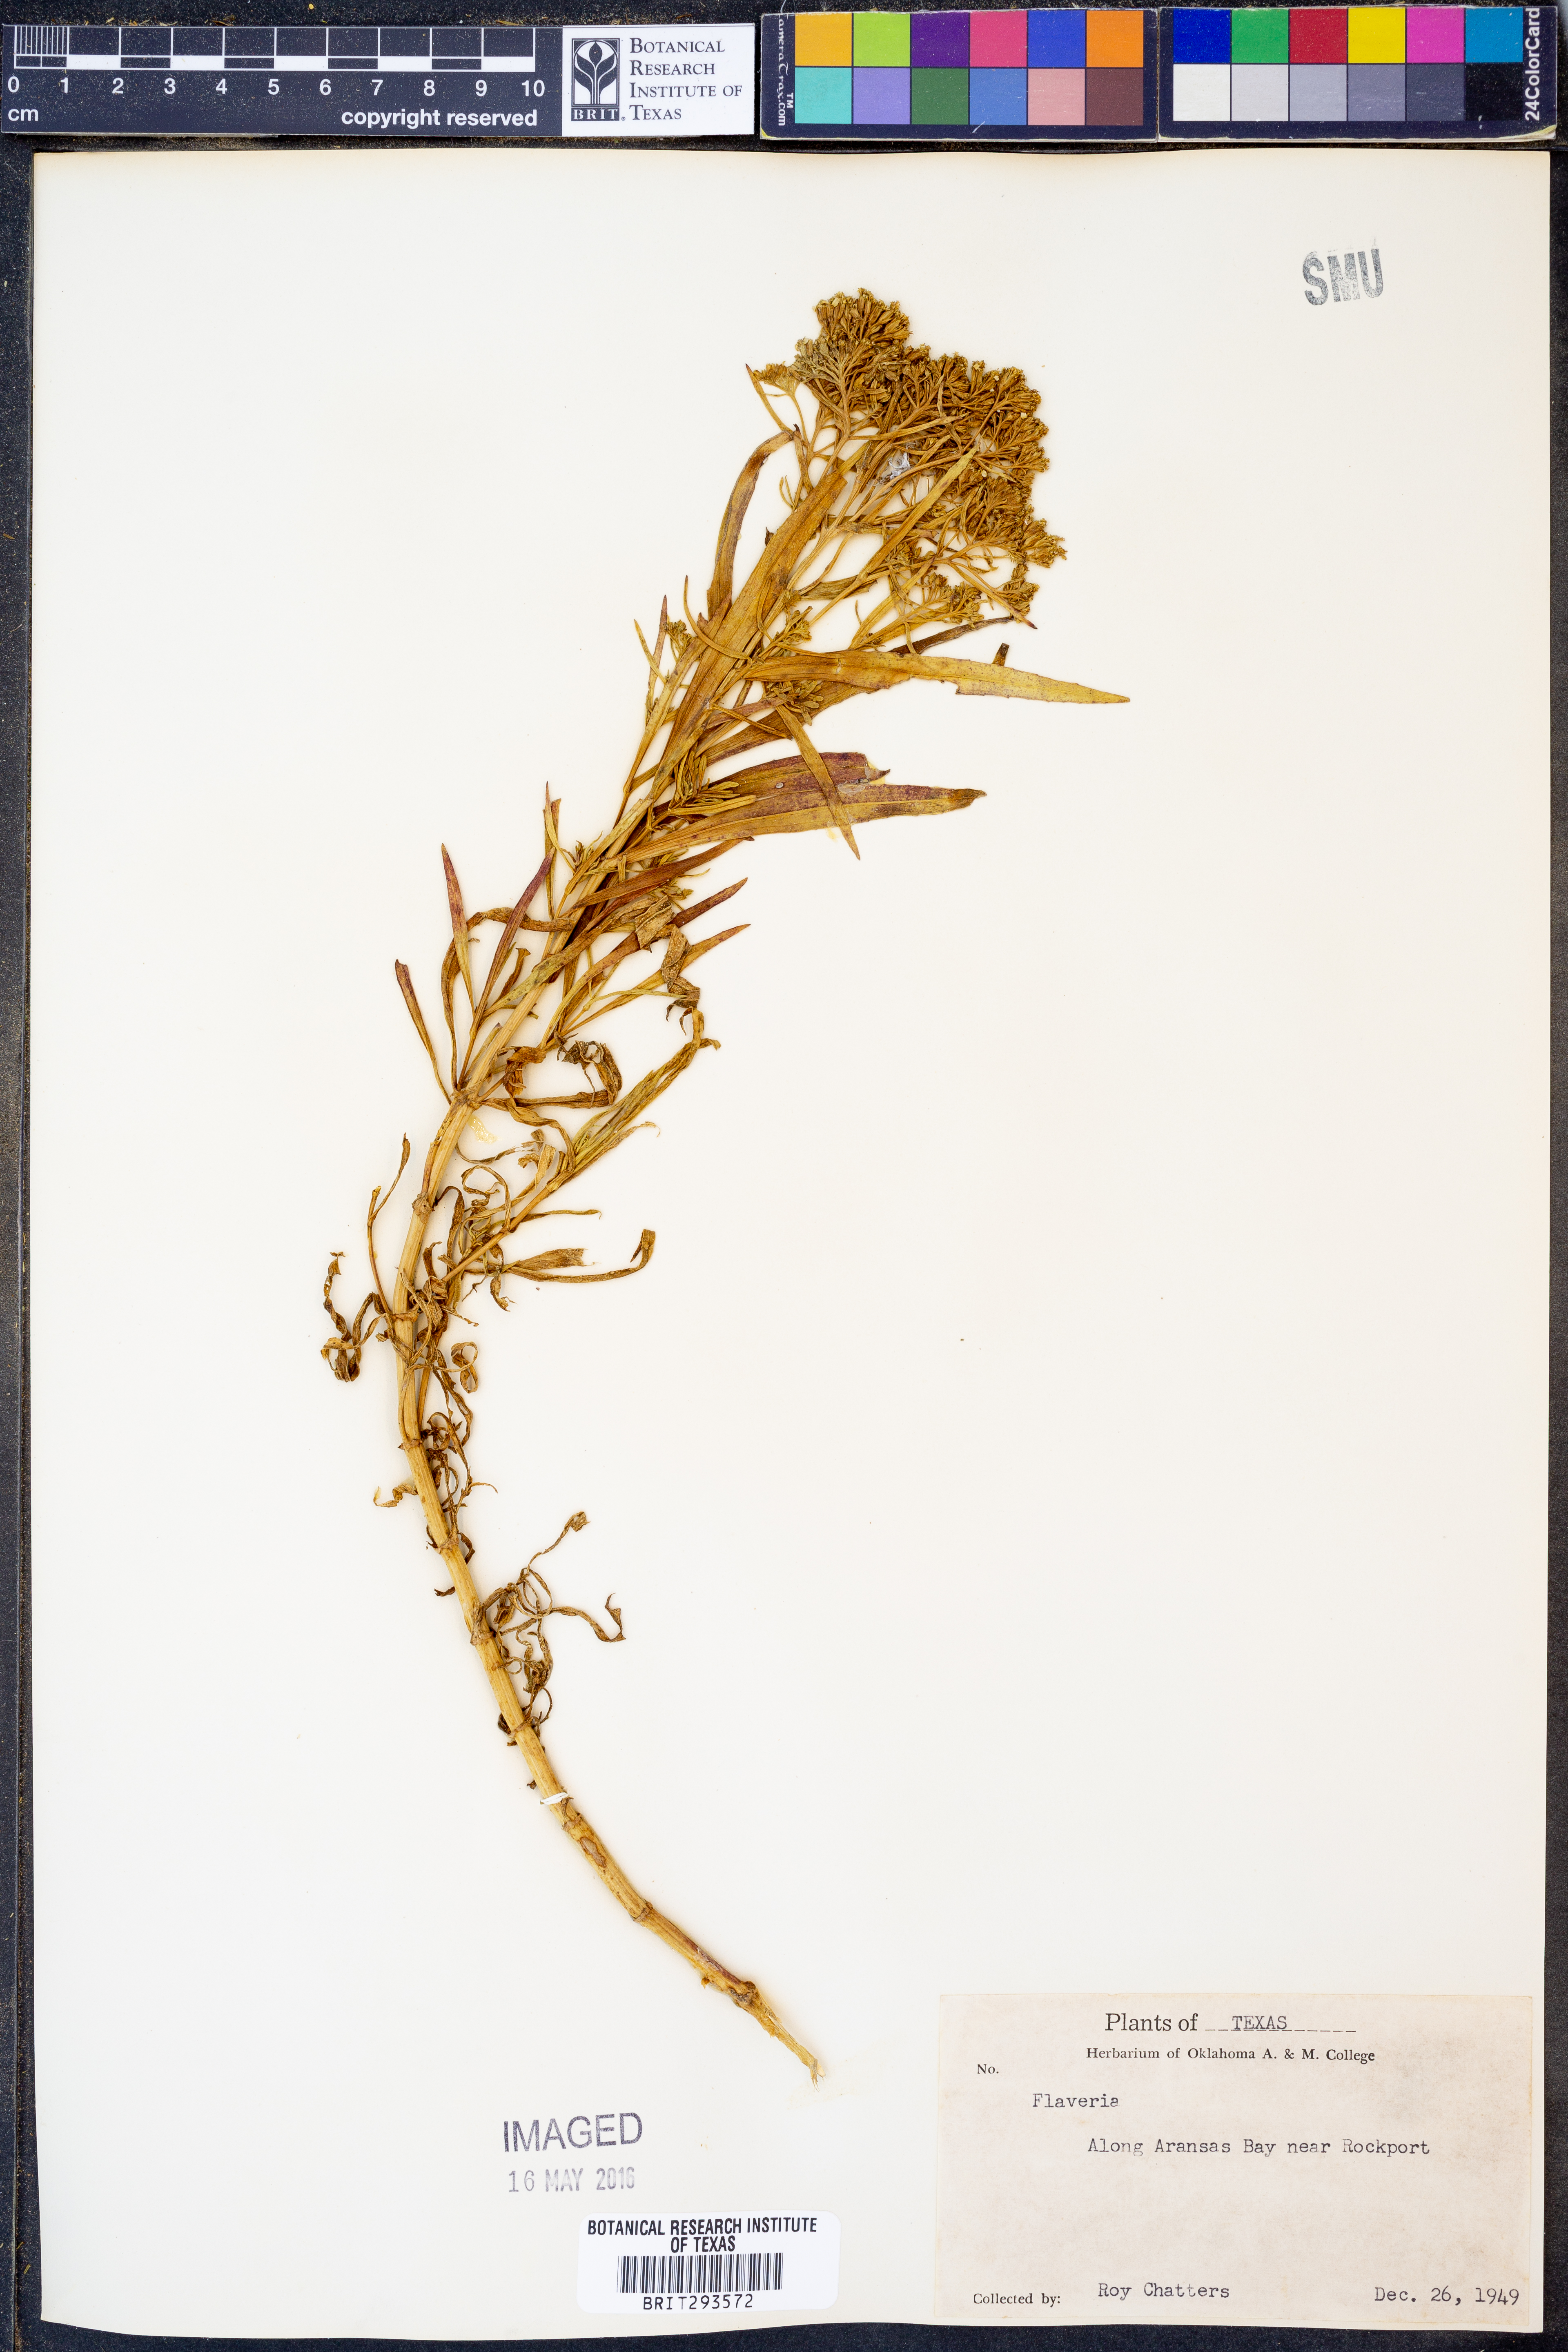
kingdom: Plantae
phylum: Tracheophyta
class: Magnoliopsida
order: Asterales
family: Asteraceae
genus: Flaveria
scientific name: Flaveria
